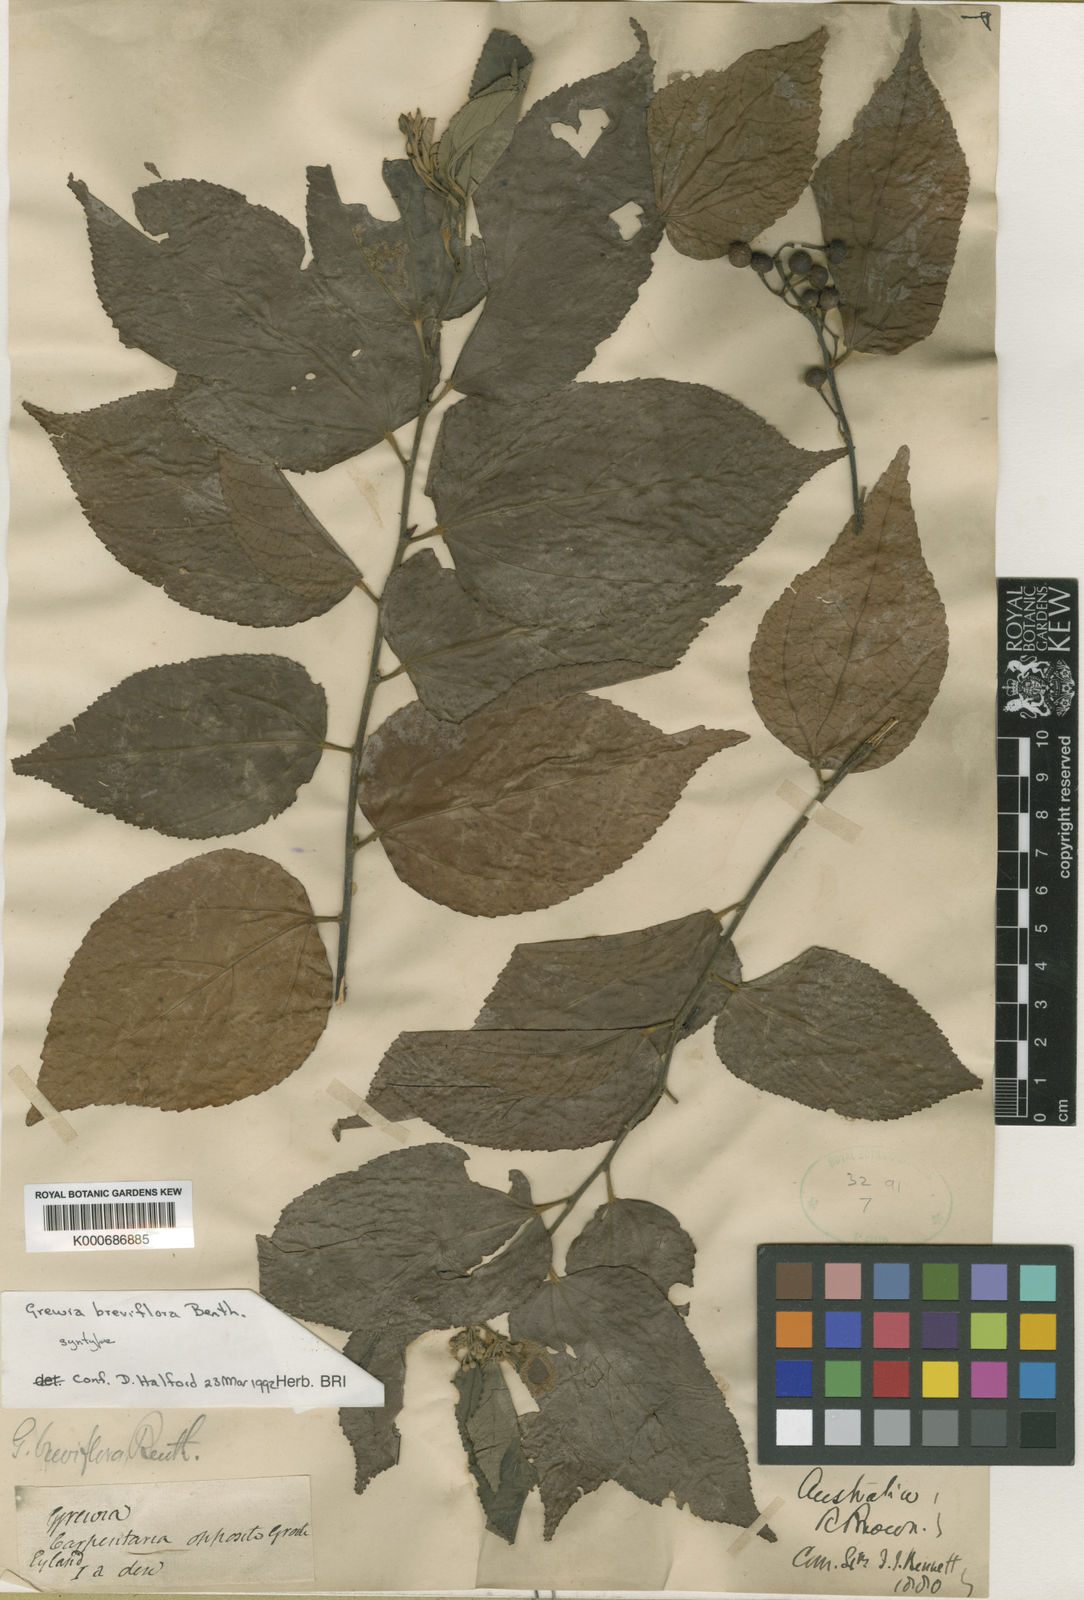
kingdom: Plantae
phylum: Tracheophyta
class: Magnoliopsida
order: Malvales
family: Malvaceae
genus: Grewia
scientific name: Grewia breviflora
